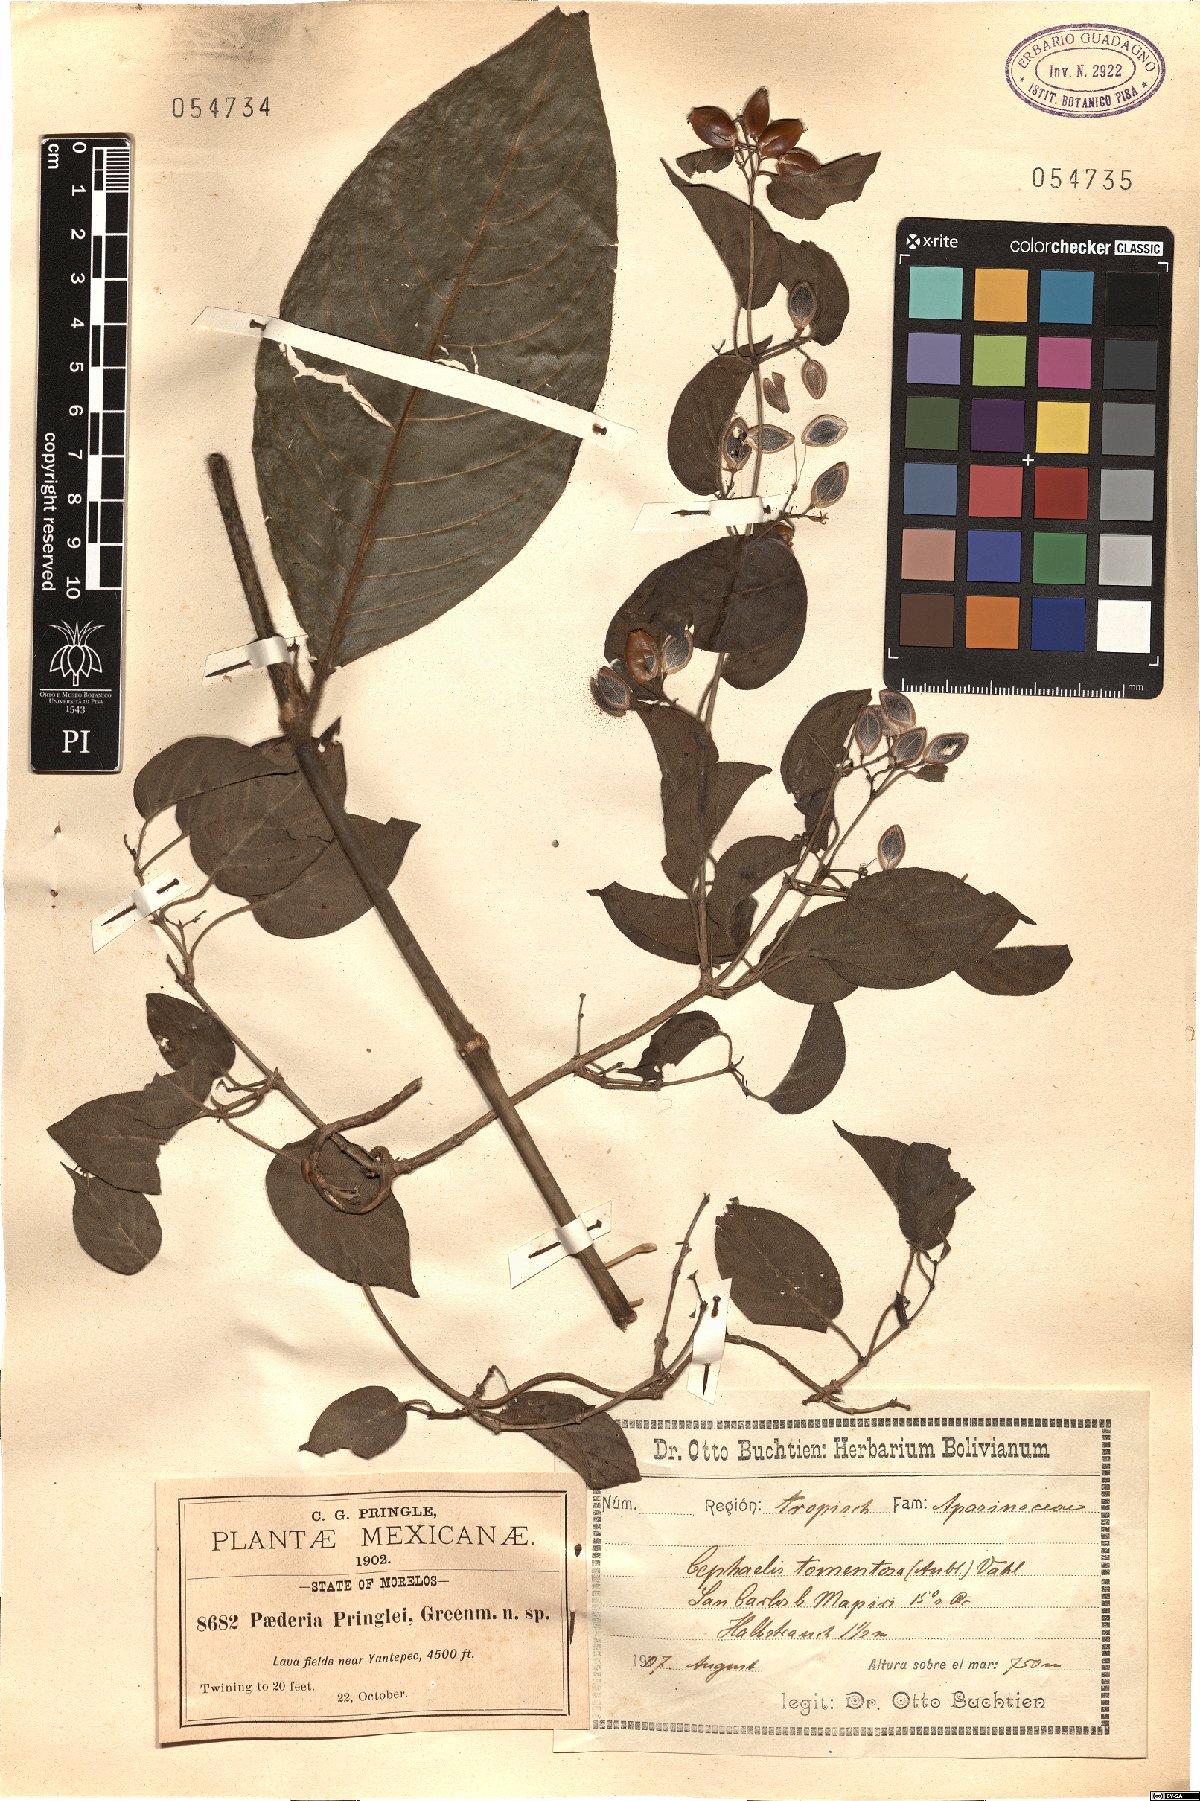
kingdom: Plantae
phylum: Tracheophyta
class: Magnoliopsida
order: Gentianales
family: Rubiaceae
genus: Palicourea
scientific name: Palicourea tomentosa
